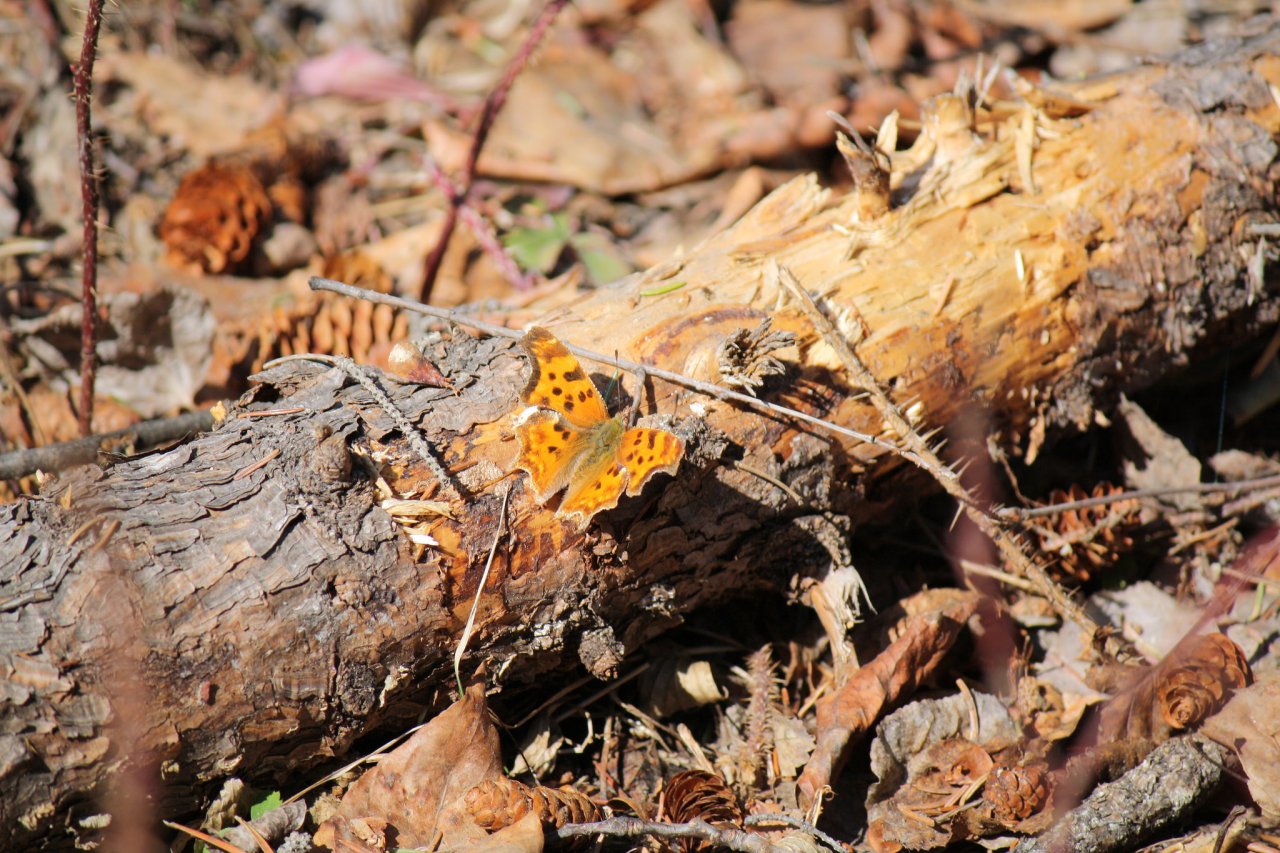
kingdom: Animalia
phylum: Arthropoda
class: Insecta
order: Lepidoptera
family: Nymphalidae
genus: Polygonia
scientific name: Polygonia satyrus
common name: Satyr Comma
